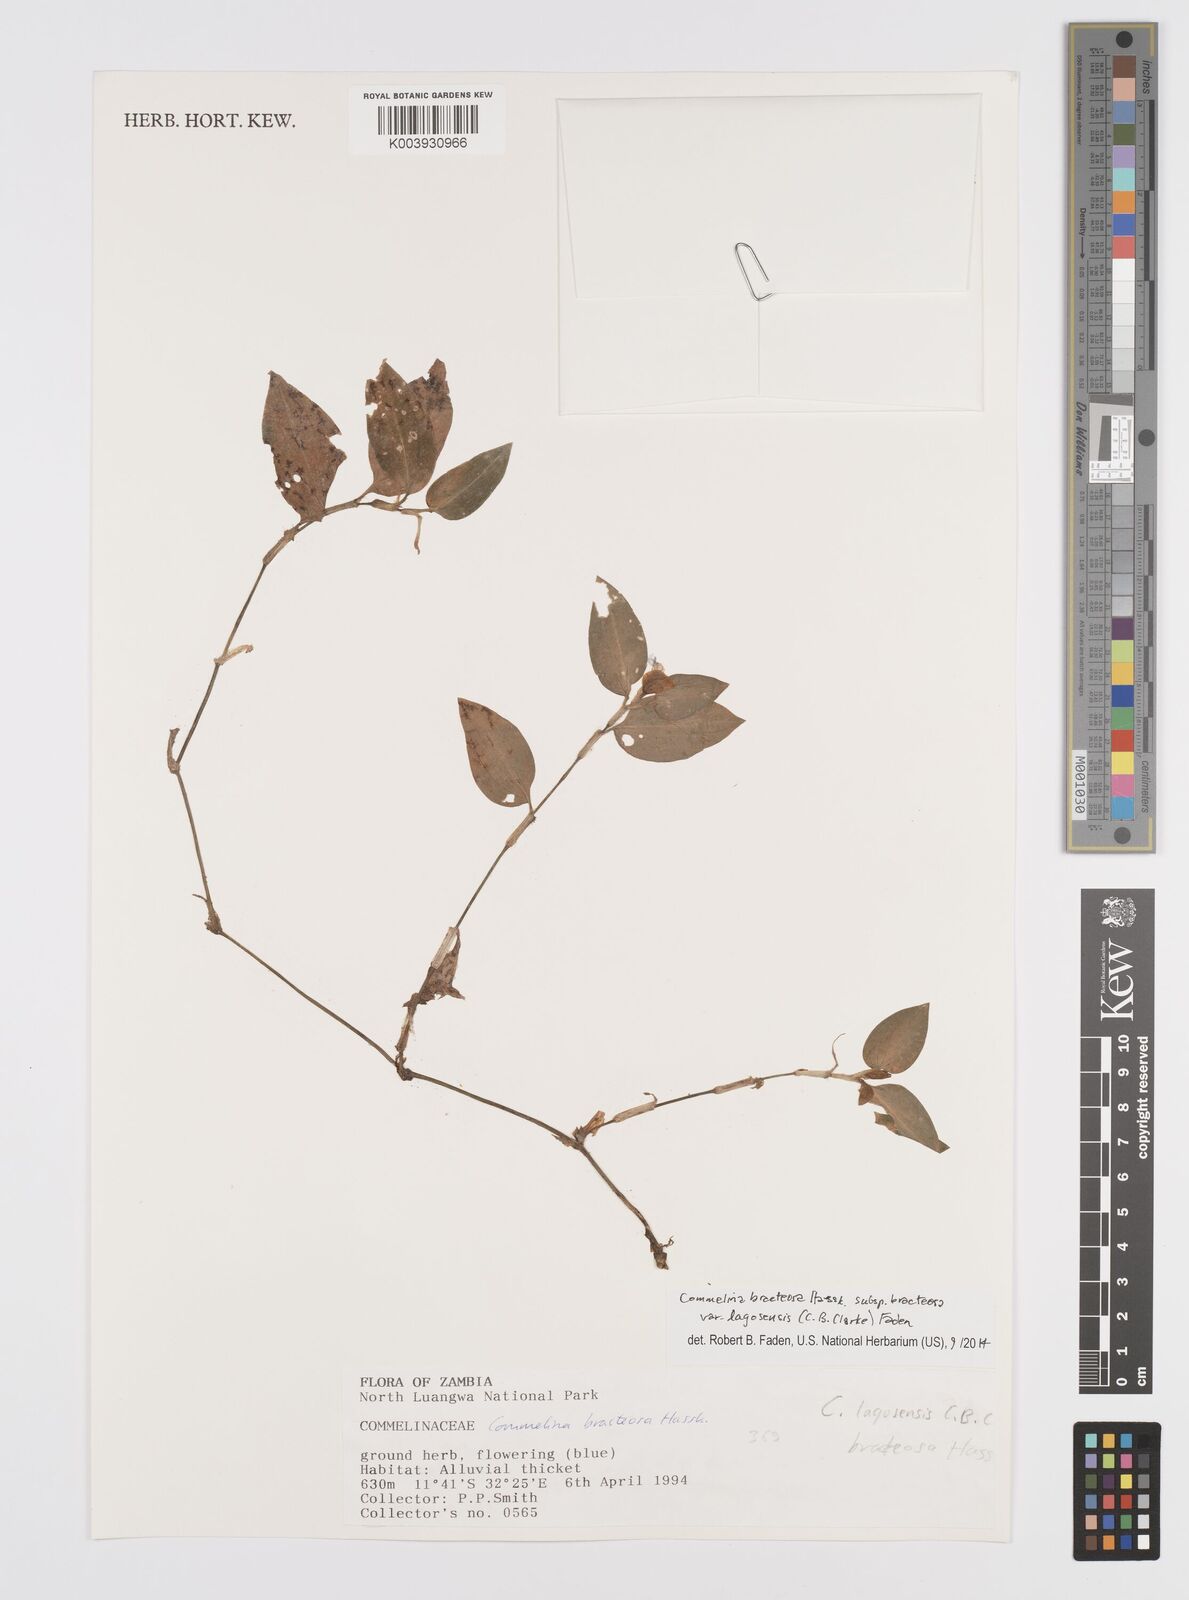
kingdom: Plantae
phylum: Tracheophyta
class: Liliopsida
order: Commelinales
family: Commelinaceae
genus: Commelina
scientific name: Commelina bracteosa
